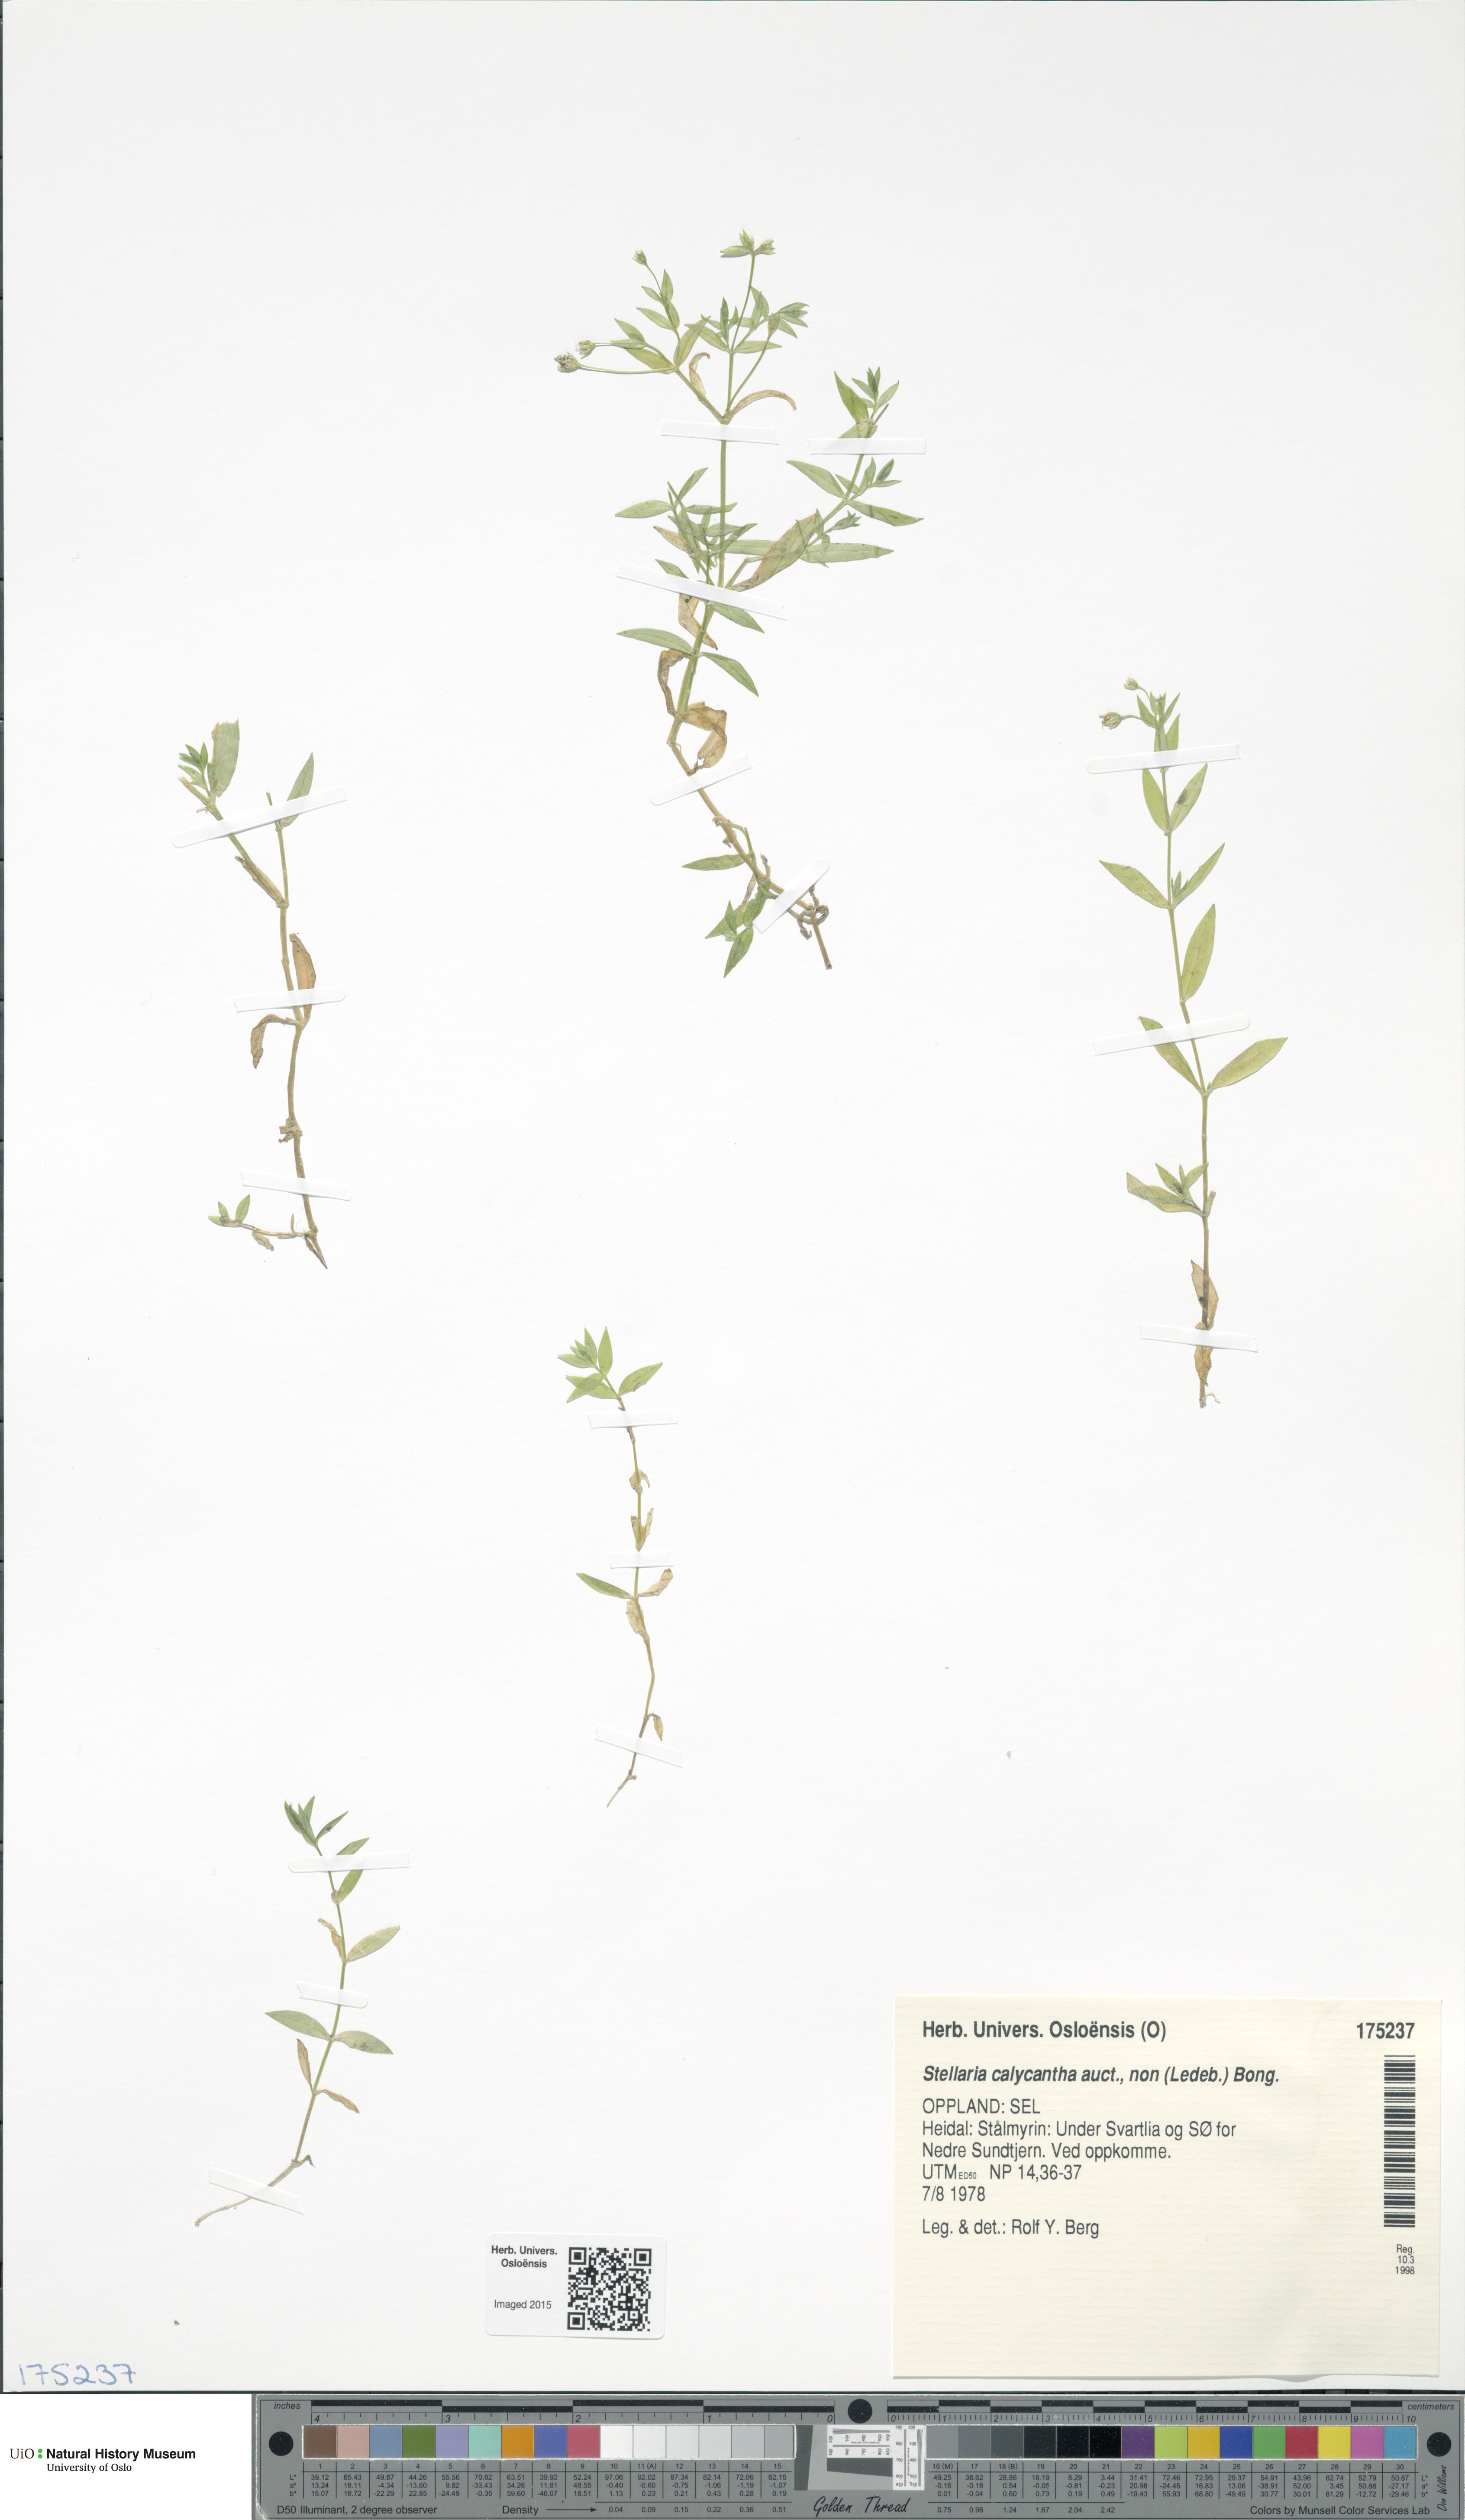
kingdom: Plantae
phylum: Tracheophyta
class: Magnoliopsida
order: Caryophyllales
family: Caryophyllaceae
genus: Stellaria
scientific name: Stellaria borealis
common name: Boreal starwort
